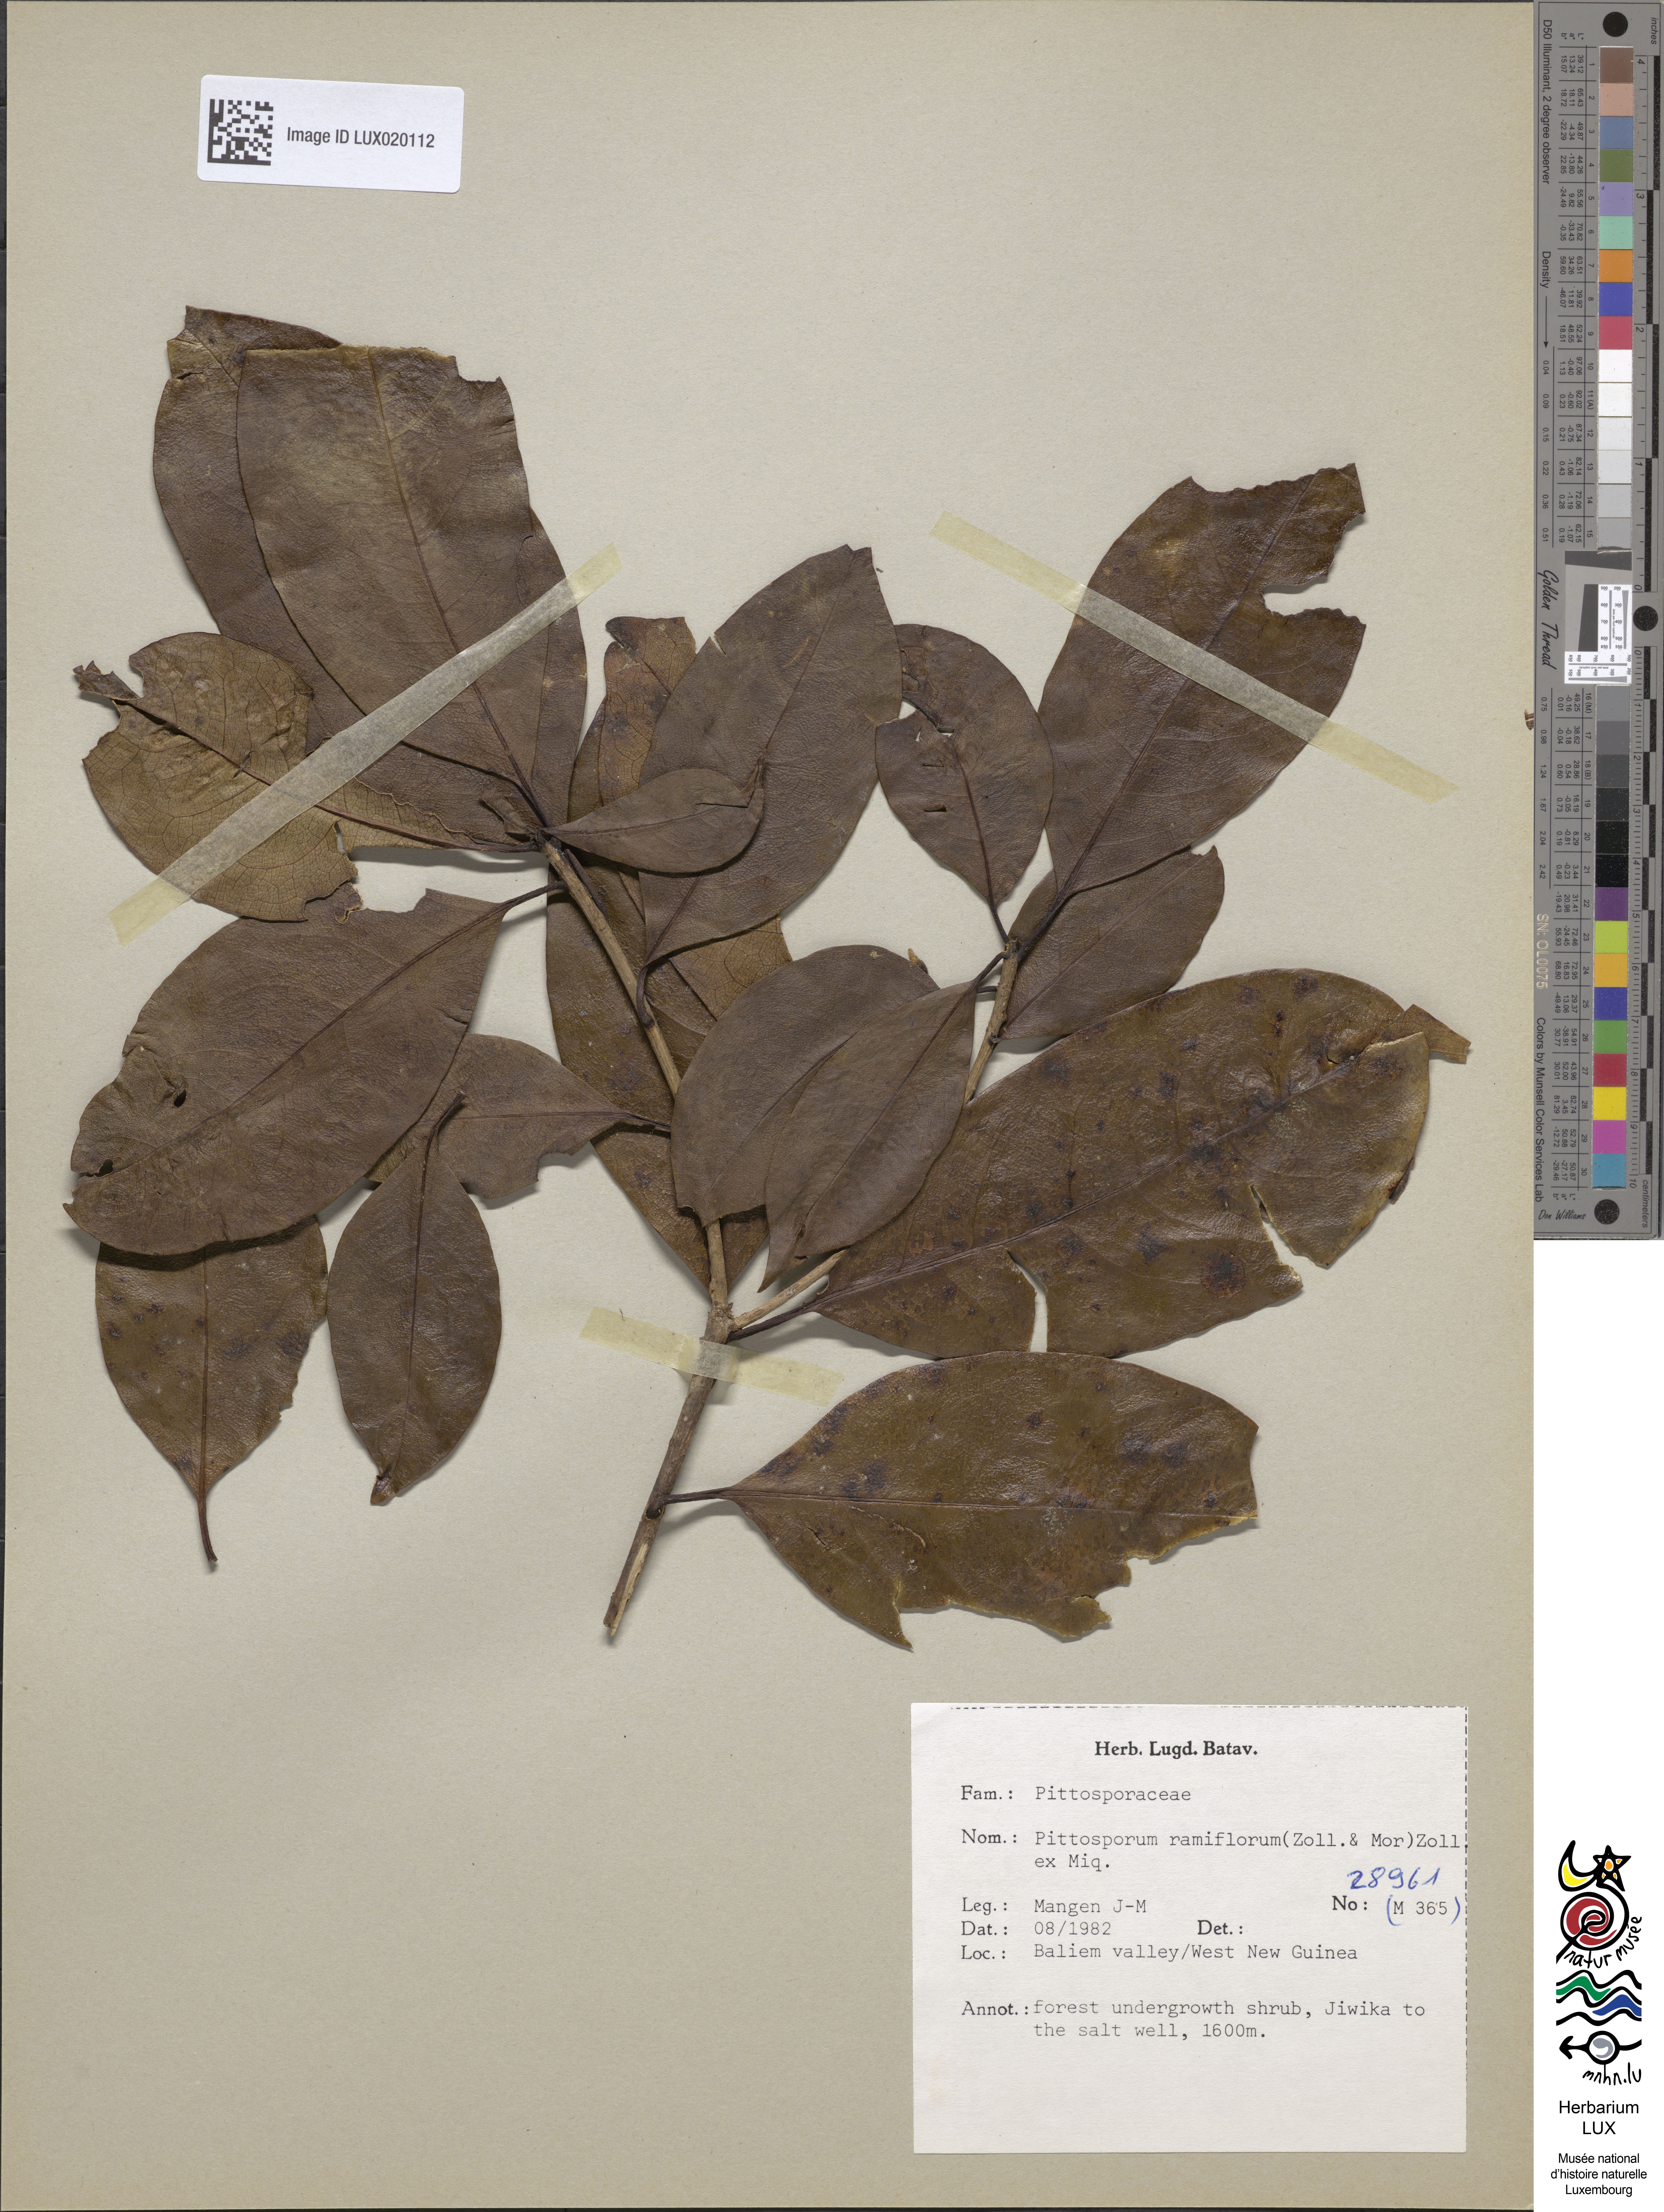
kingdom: Plantae
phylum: Tracheophyta
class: Magnoliopsida
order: Apiales
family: Pittosporaceae
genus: Pittosporum
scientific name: Pittosporum ramiflorum
